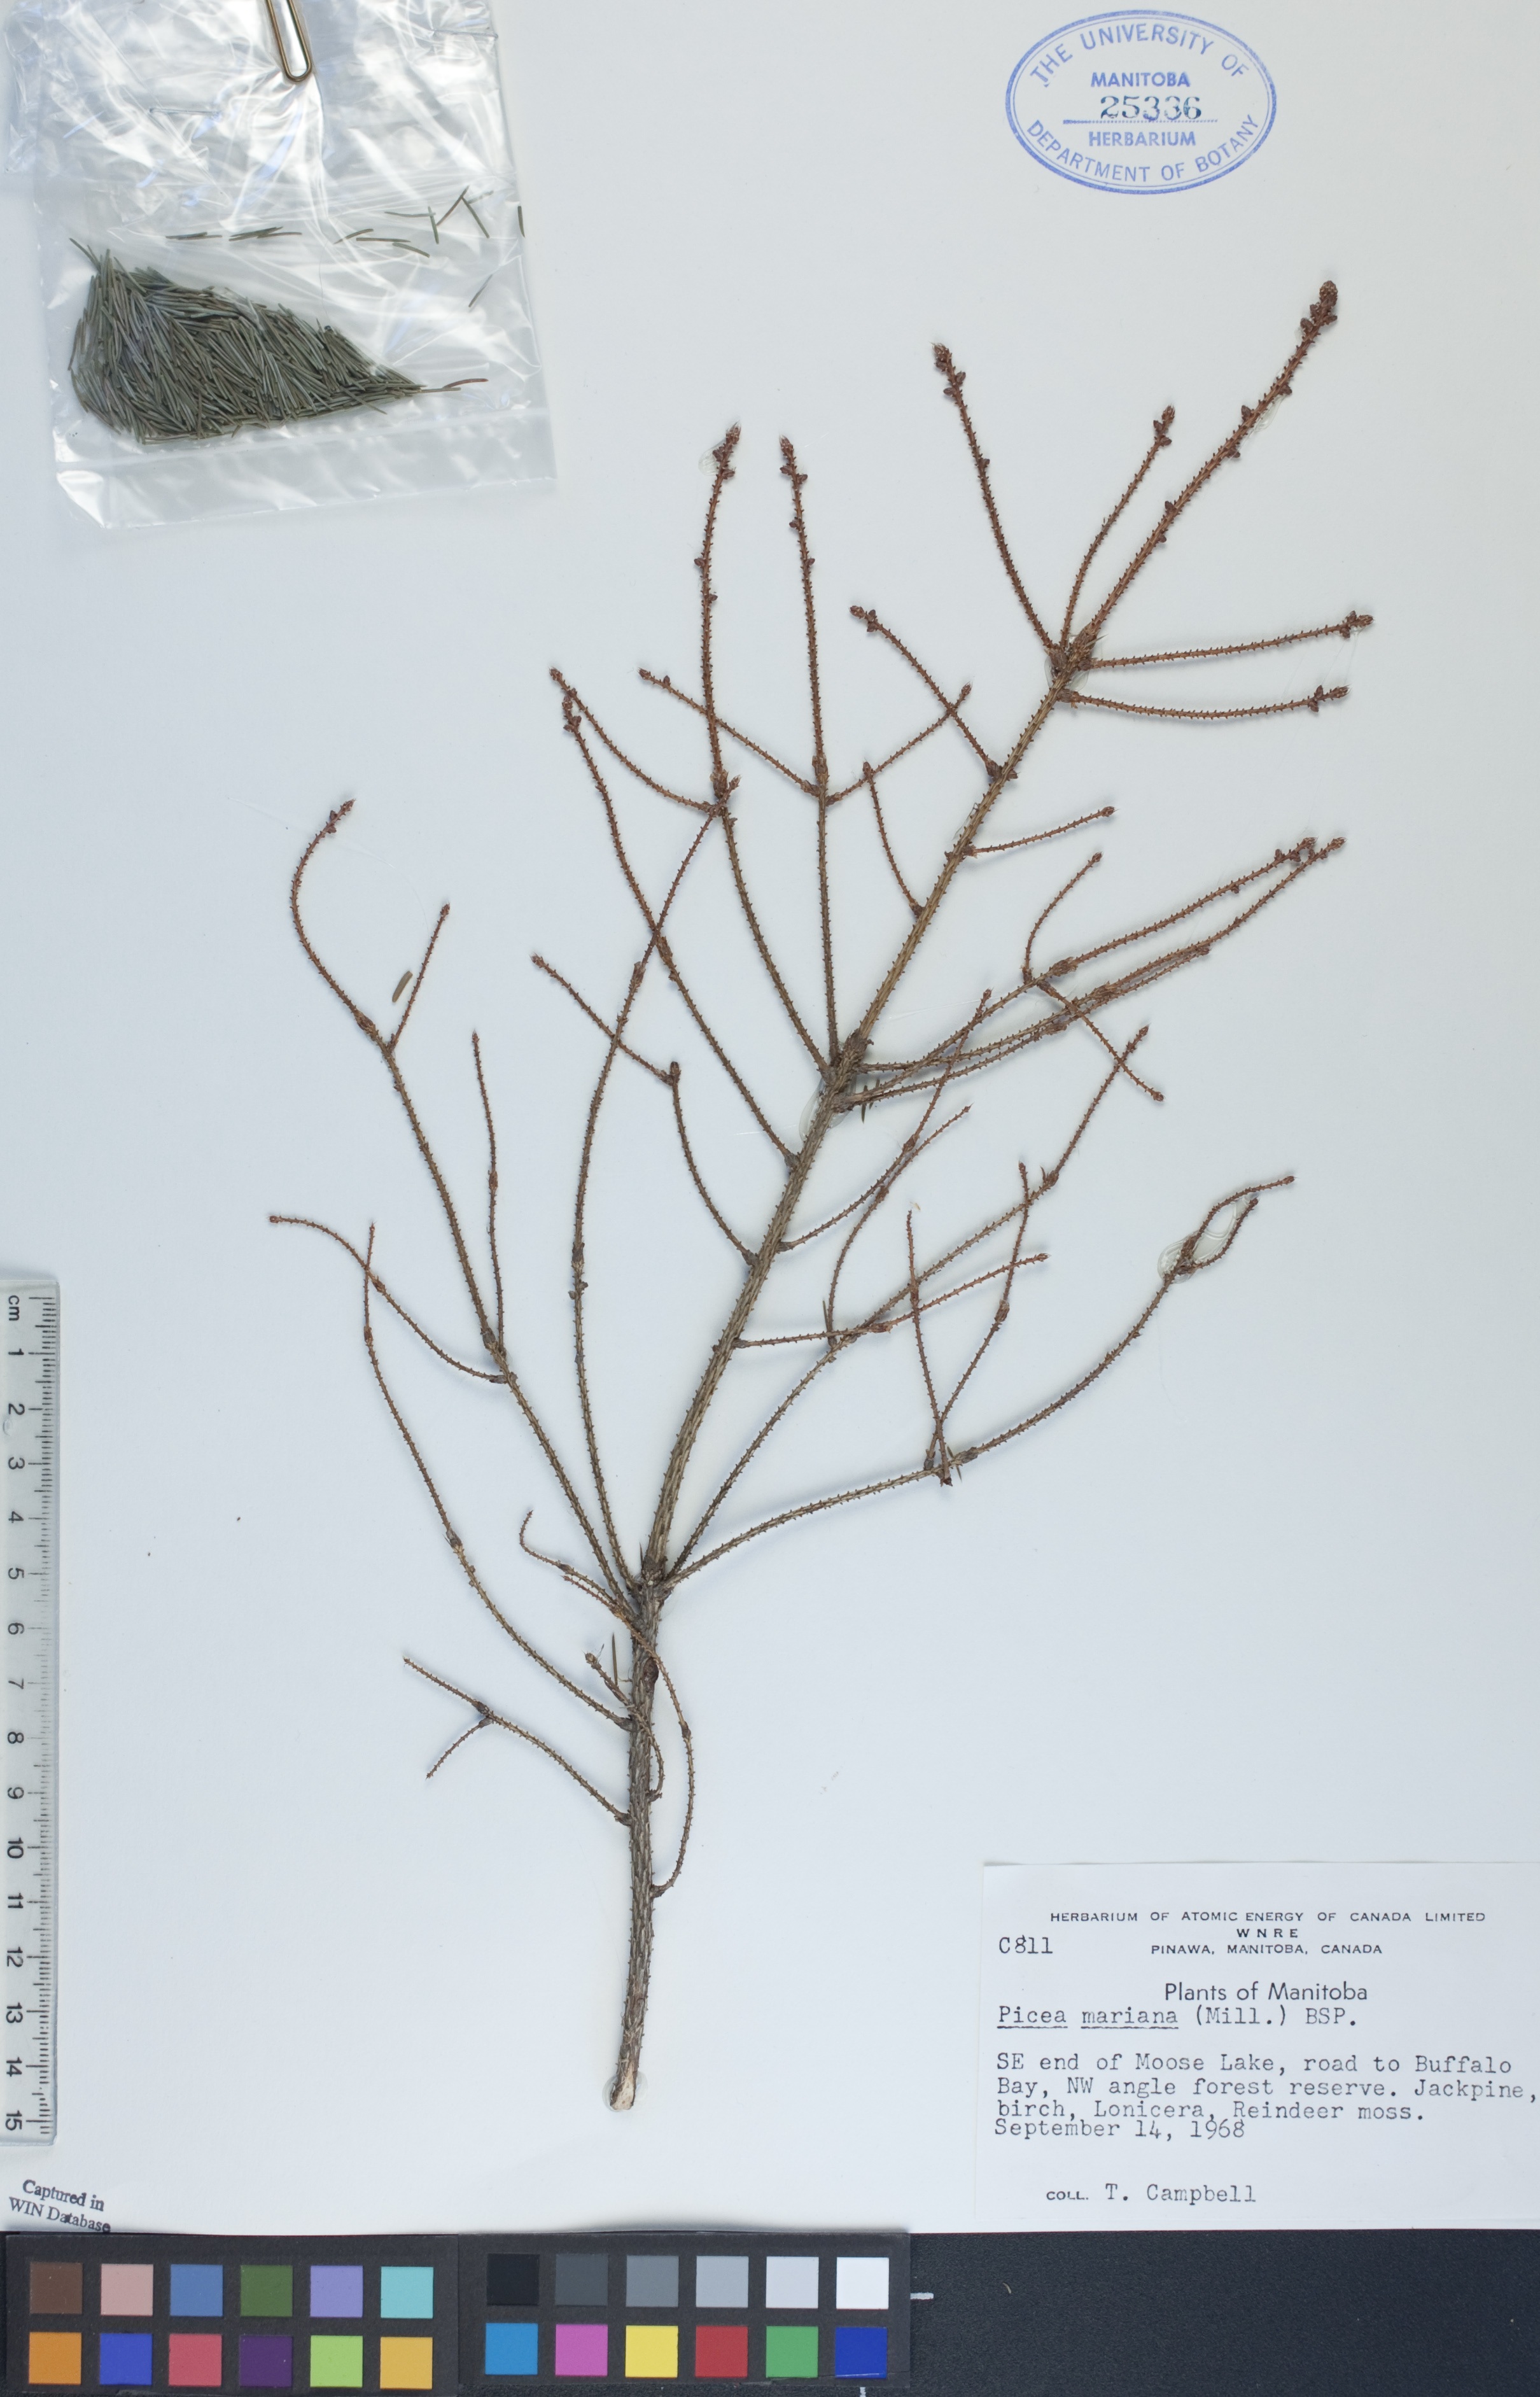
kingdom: Plantae
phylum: Tracheophyta
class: Pinopsida
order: Pinales
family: Pinaceae
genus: Picea
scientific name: Picea mariana
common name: Black spruce
